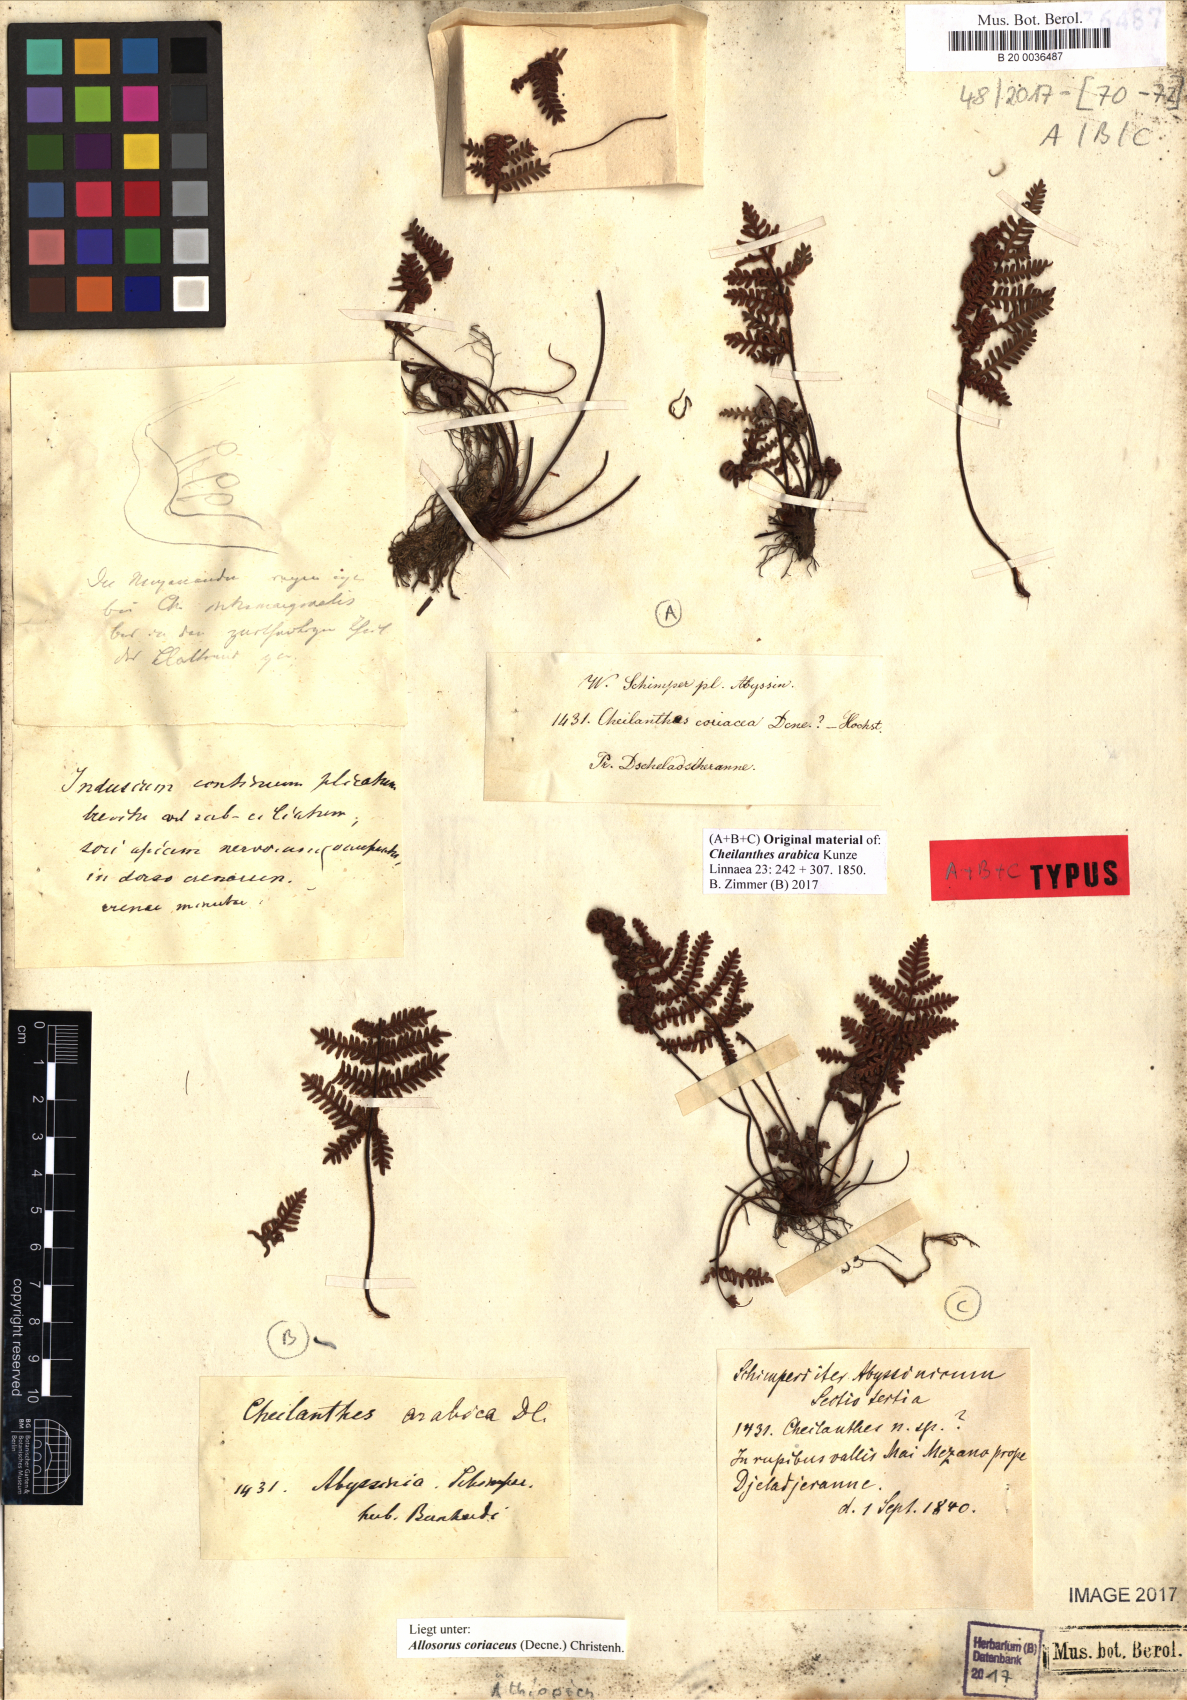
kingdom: Plantae
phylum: Tracheophyta
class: Polypodiopsida
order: Polypodiales
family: Pteridaceae
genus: Oeosporangium
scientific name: Oeosporangium coriaceum
